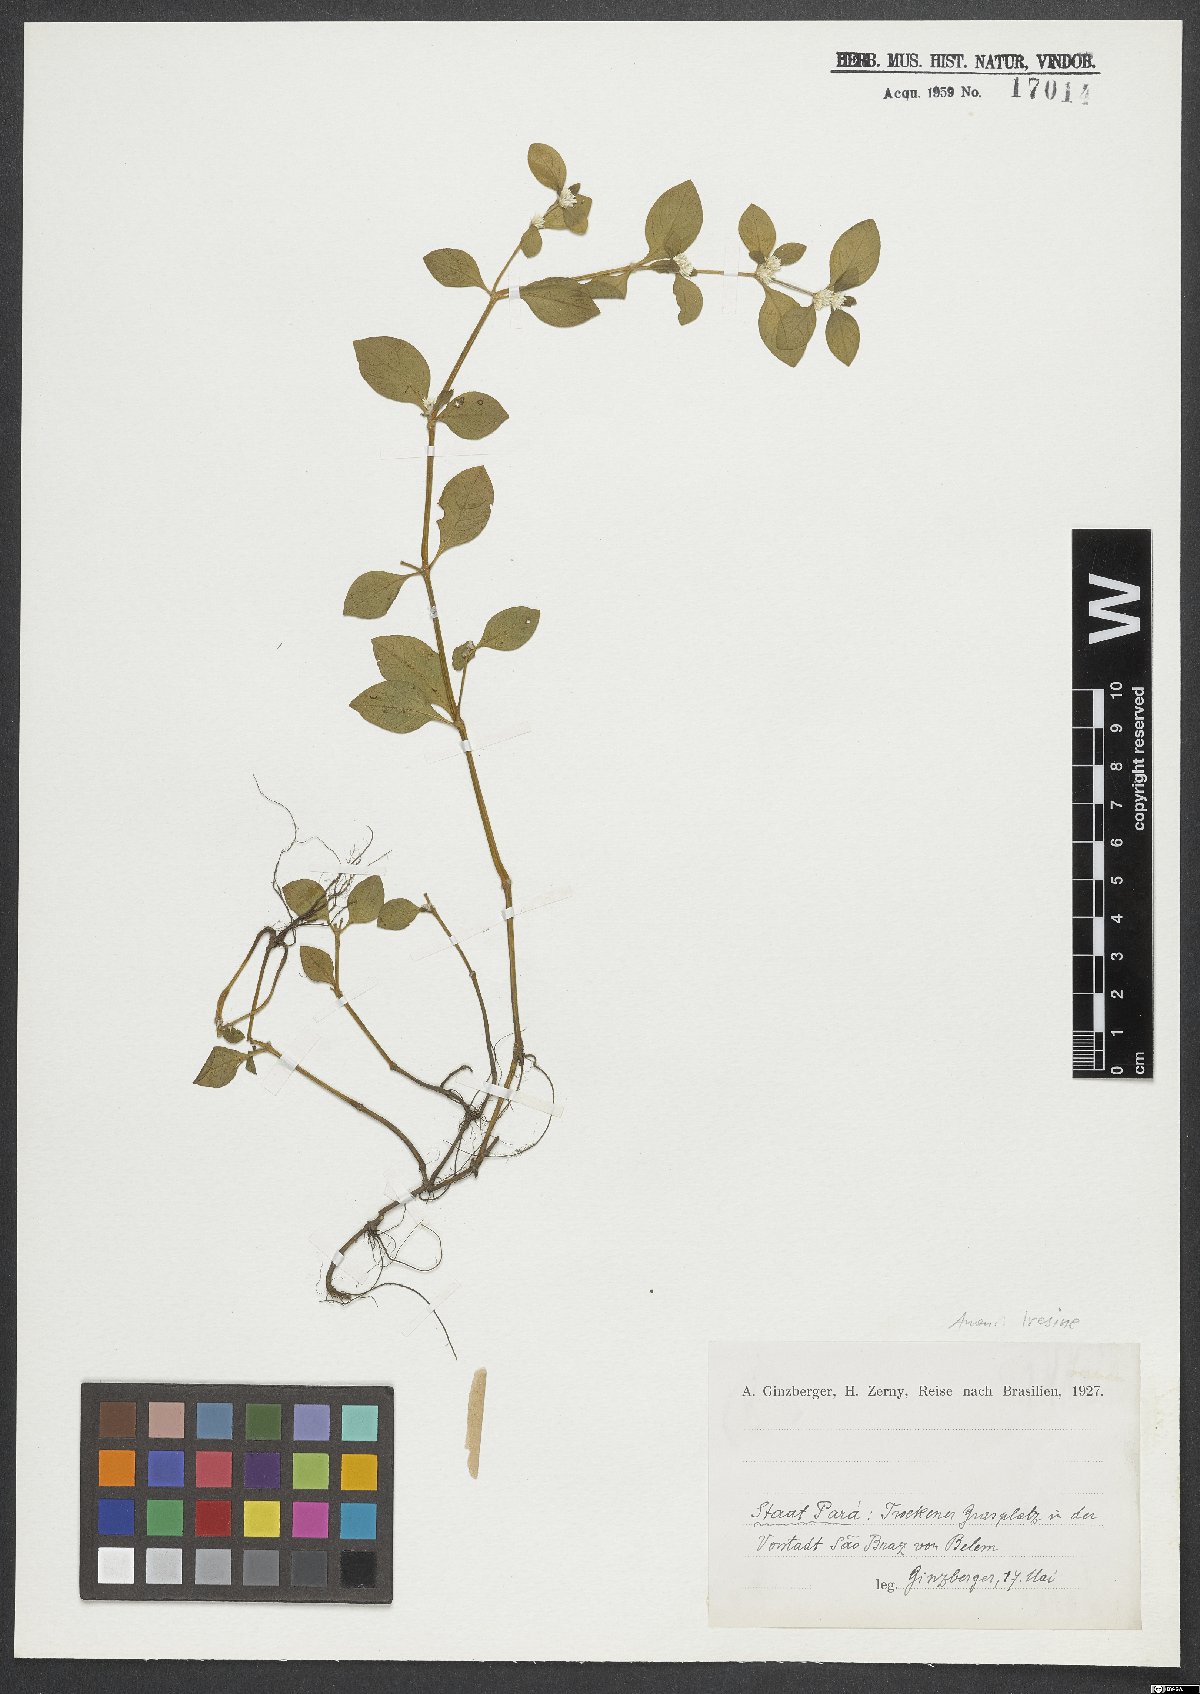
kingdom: Plantae
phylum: Tracheophyta
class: Magnoliopsida
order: Caryophyllales
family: Amaranthaceae
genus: Iresine
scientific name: Iresine
